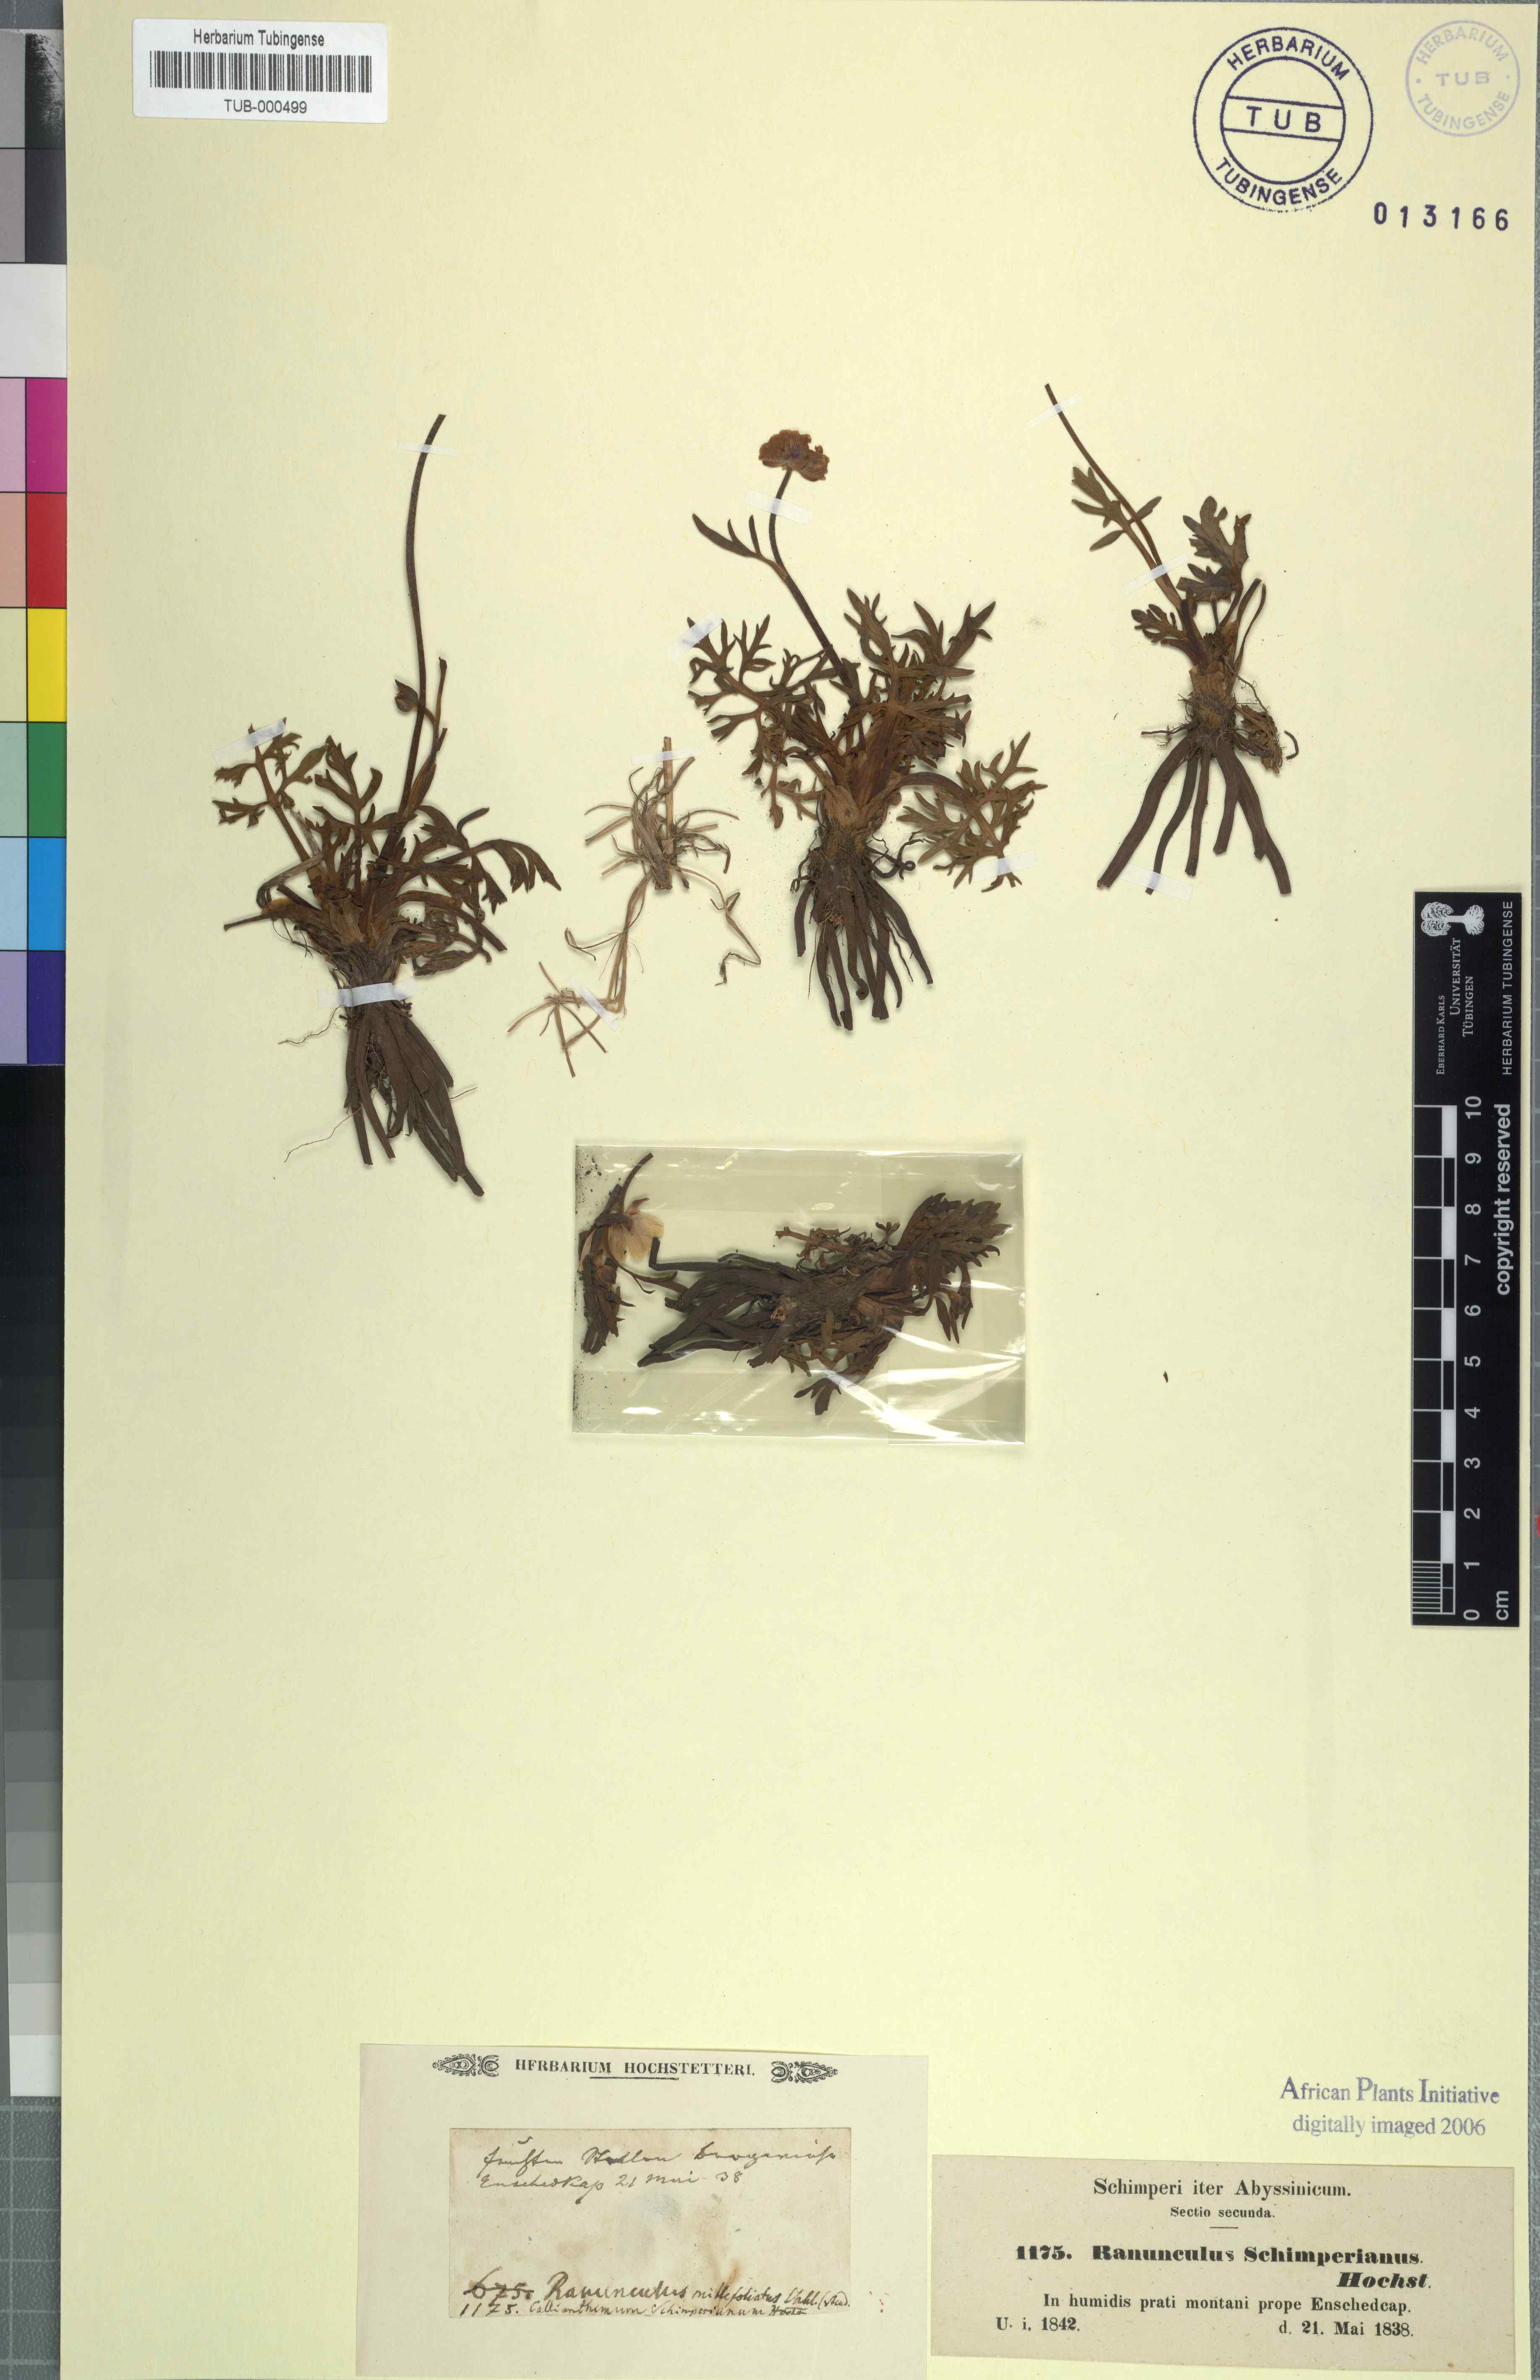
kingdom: Plantae
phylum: Tracheophyta
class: Magnoliopsida
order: Ranunculales
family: Ranunculaceae
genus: Ranunculus
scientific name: Ranunculus simensis
